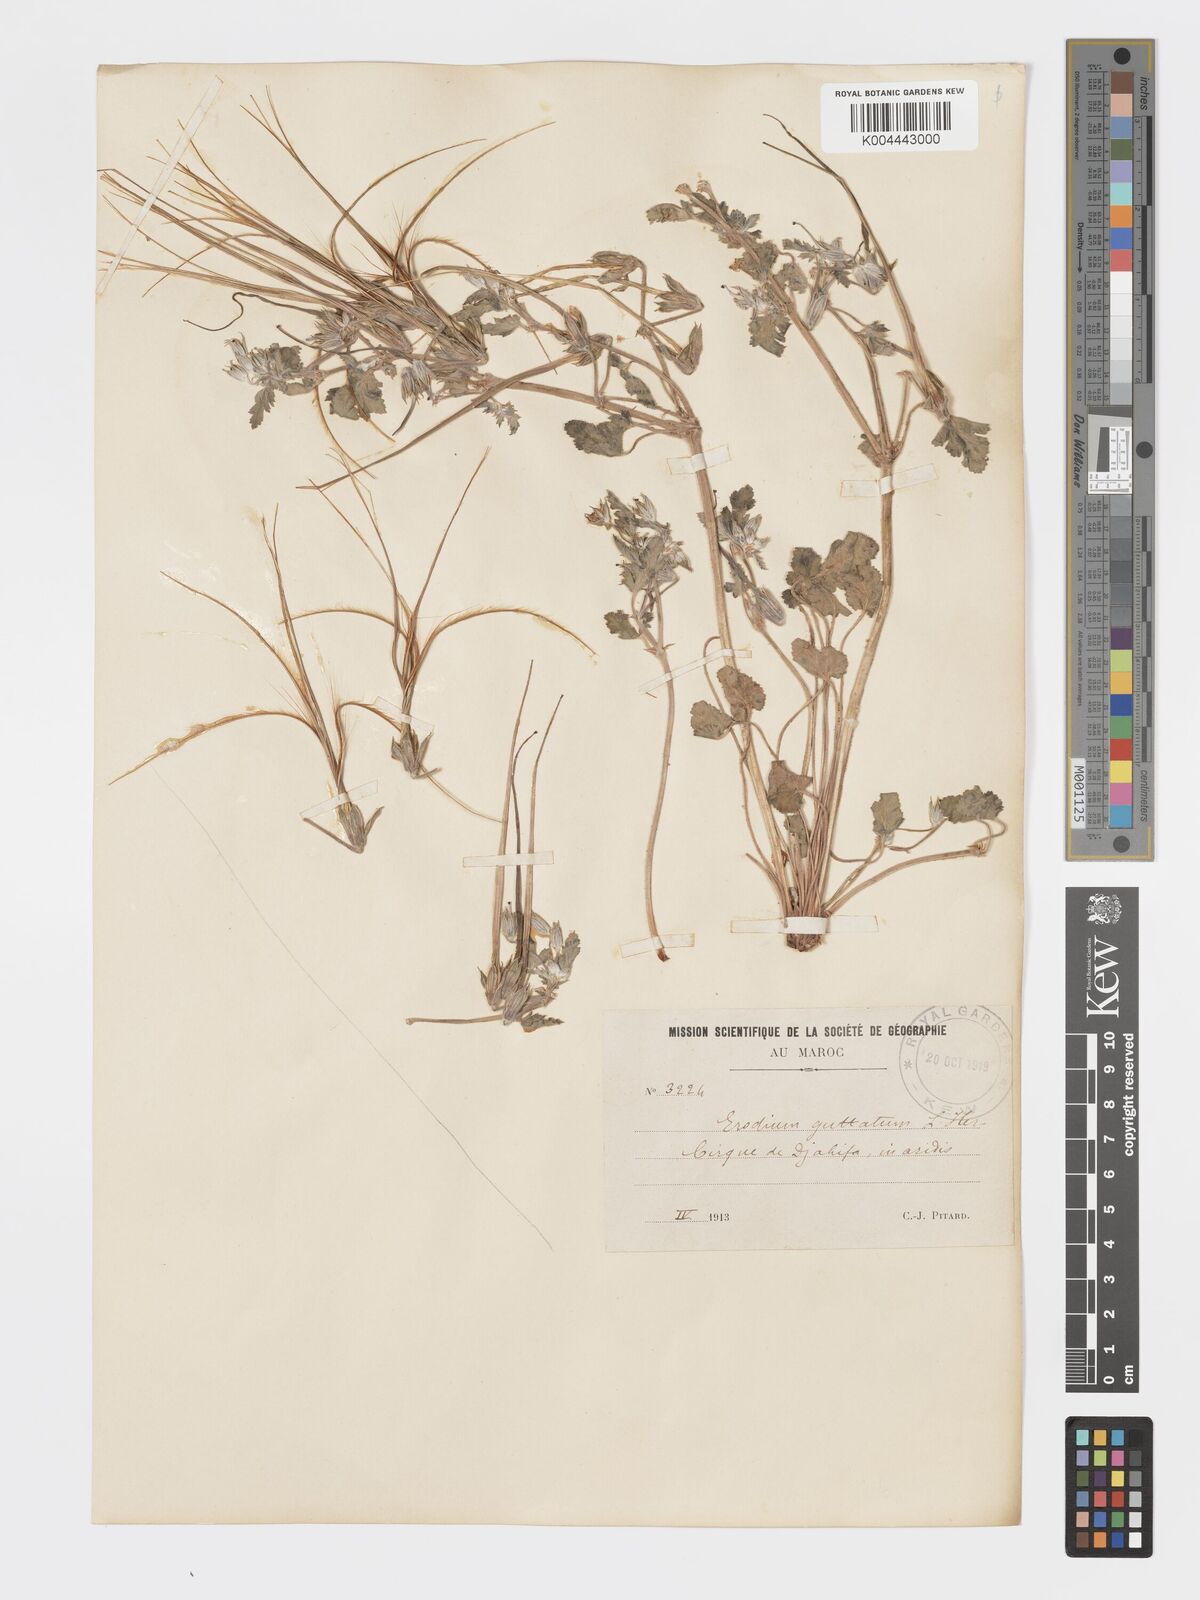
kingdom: Plantae
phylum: Tracheophyta
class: Magnoliopsida
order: Geraniales
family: Geraniaceae
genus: Erodium
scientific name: Erodium guttatum
